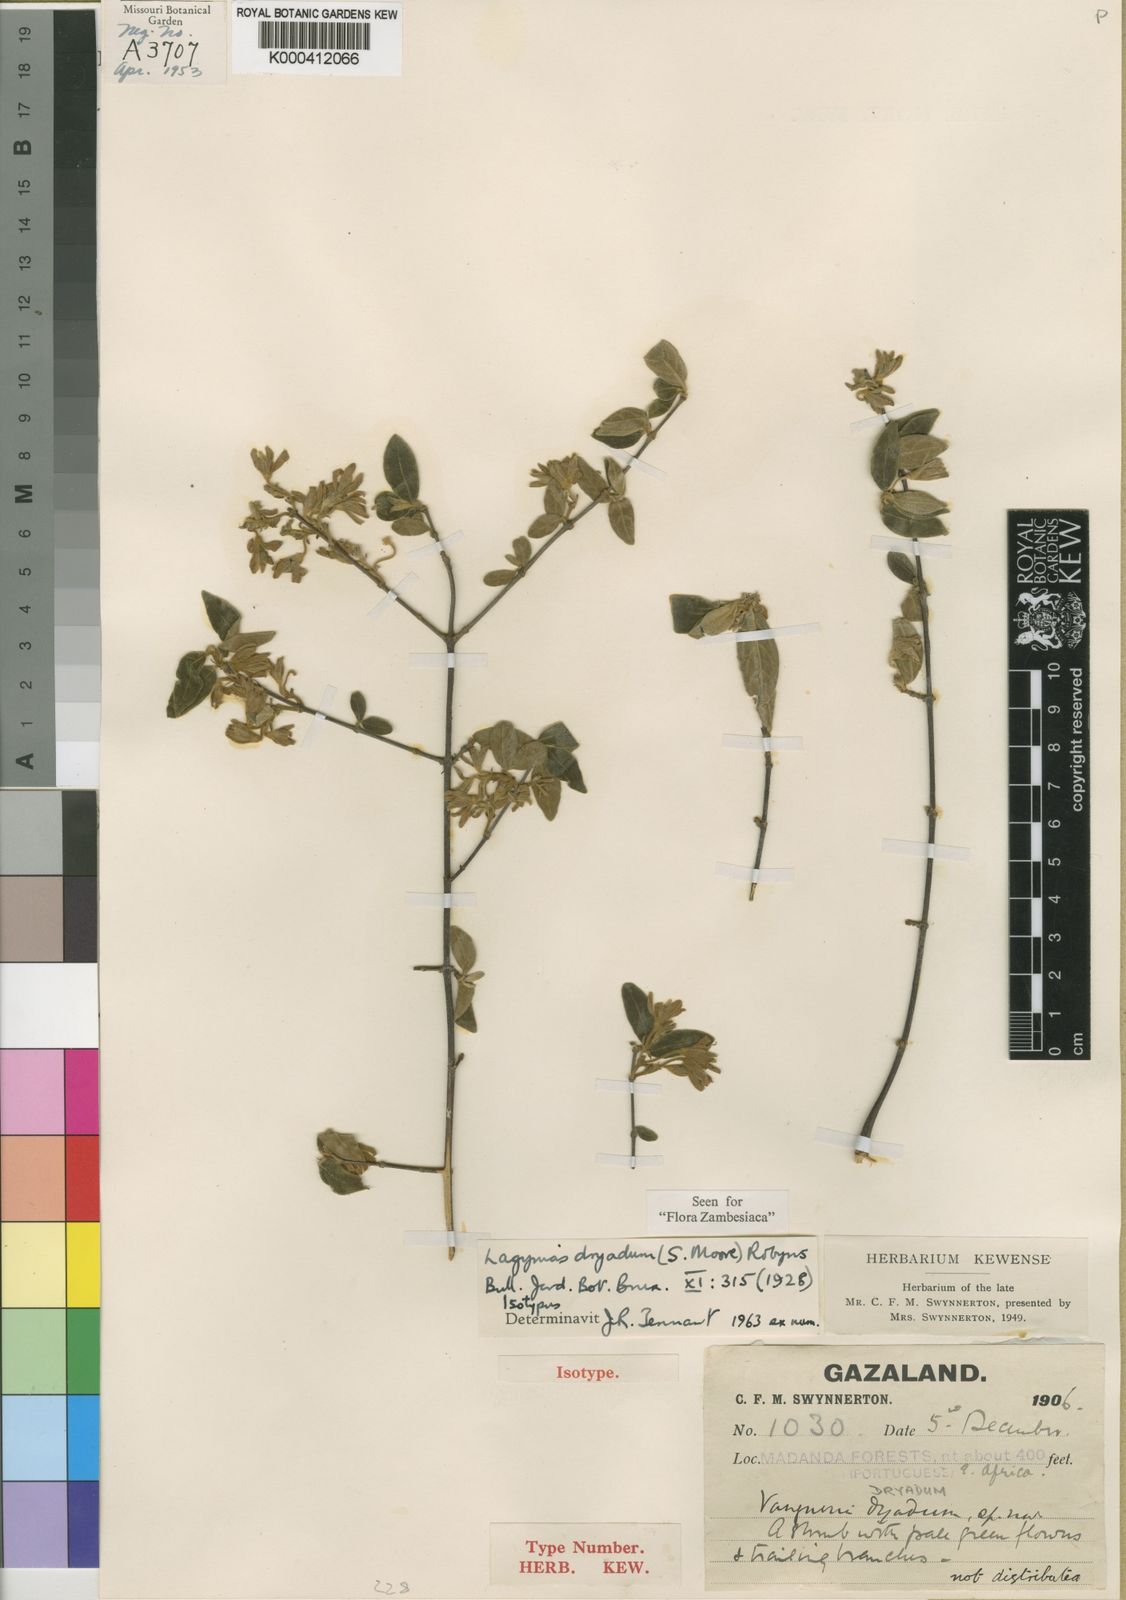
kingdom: Plantae
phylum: Tracheophyta
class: Magnoliopsida
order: Gentianales
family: Rubiaceae
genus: Vangueria
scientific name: Vangueria dryadum
